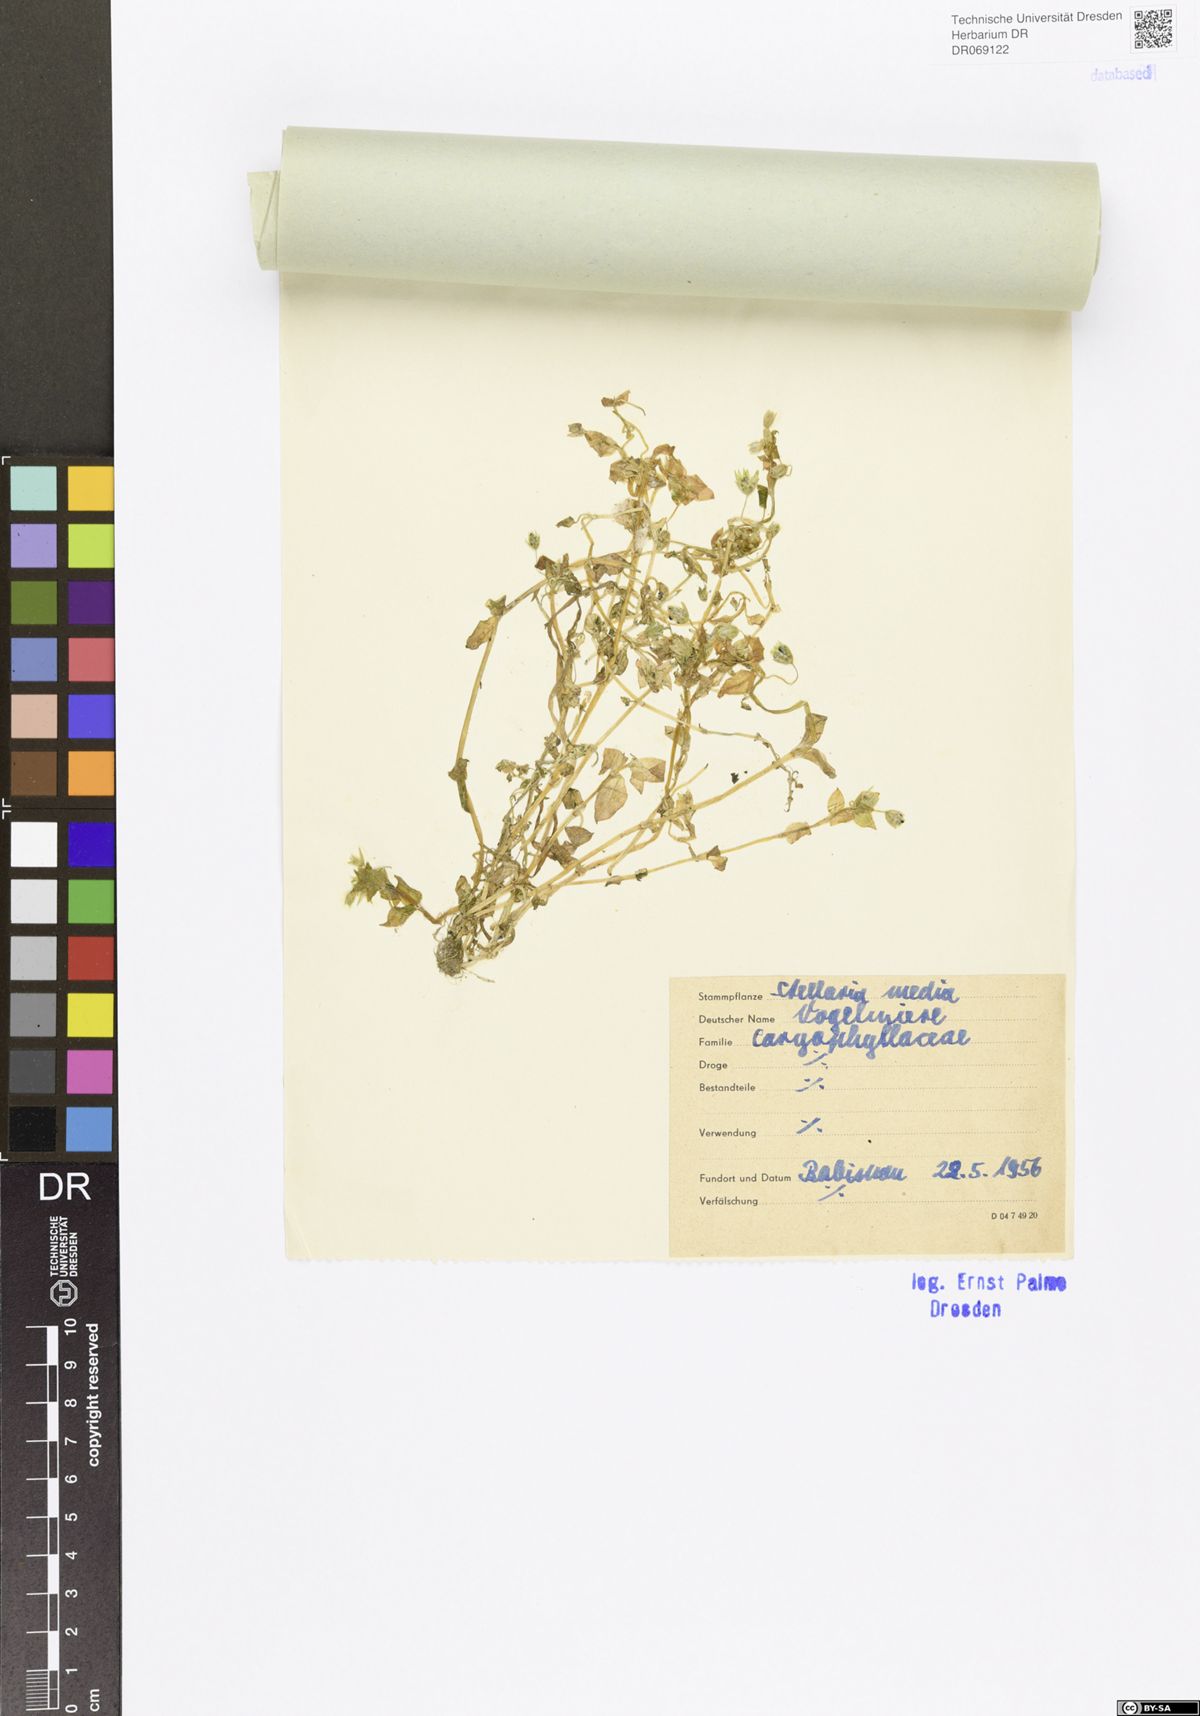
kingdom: Plantae
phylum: Tracheophyta
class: Magnoliopsida
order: Caryophyllales
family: Caryophyllaceae
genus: Stellaria
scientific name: Stellaria media
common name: Common chickweed
